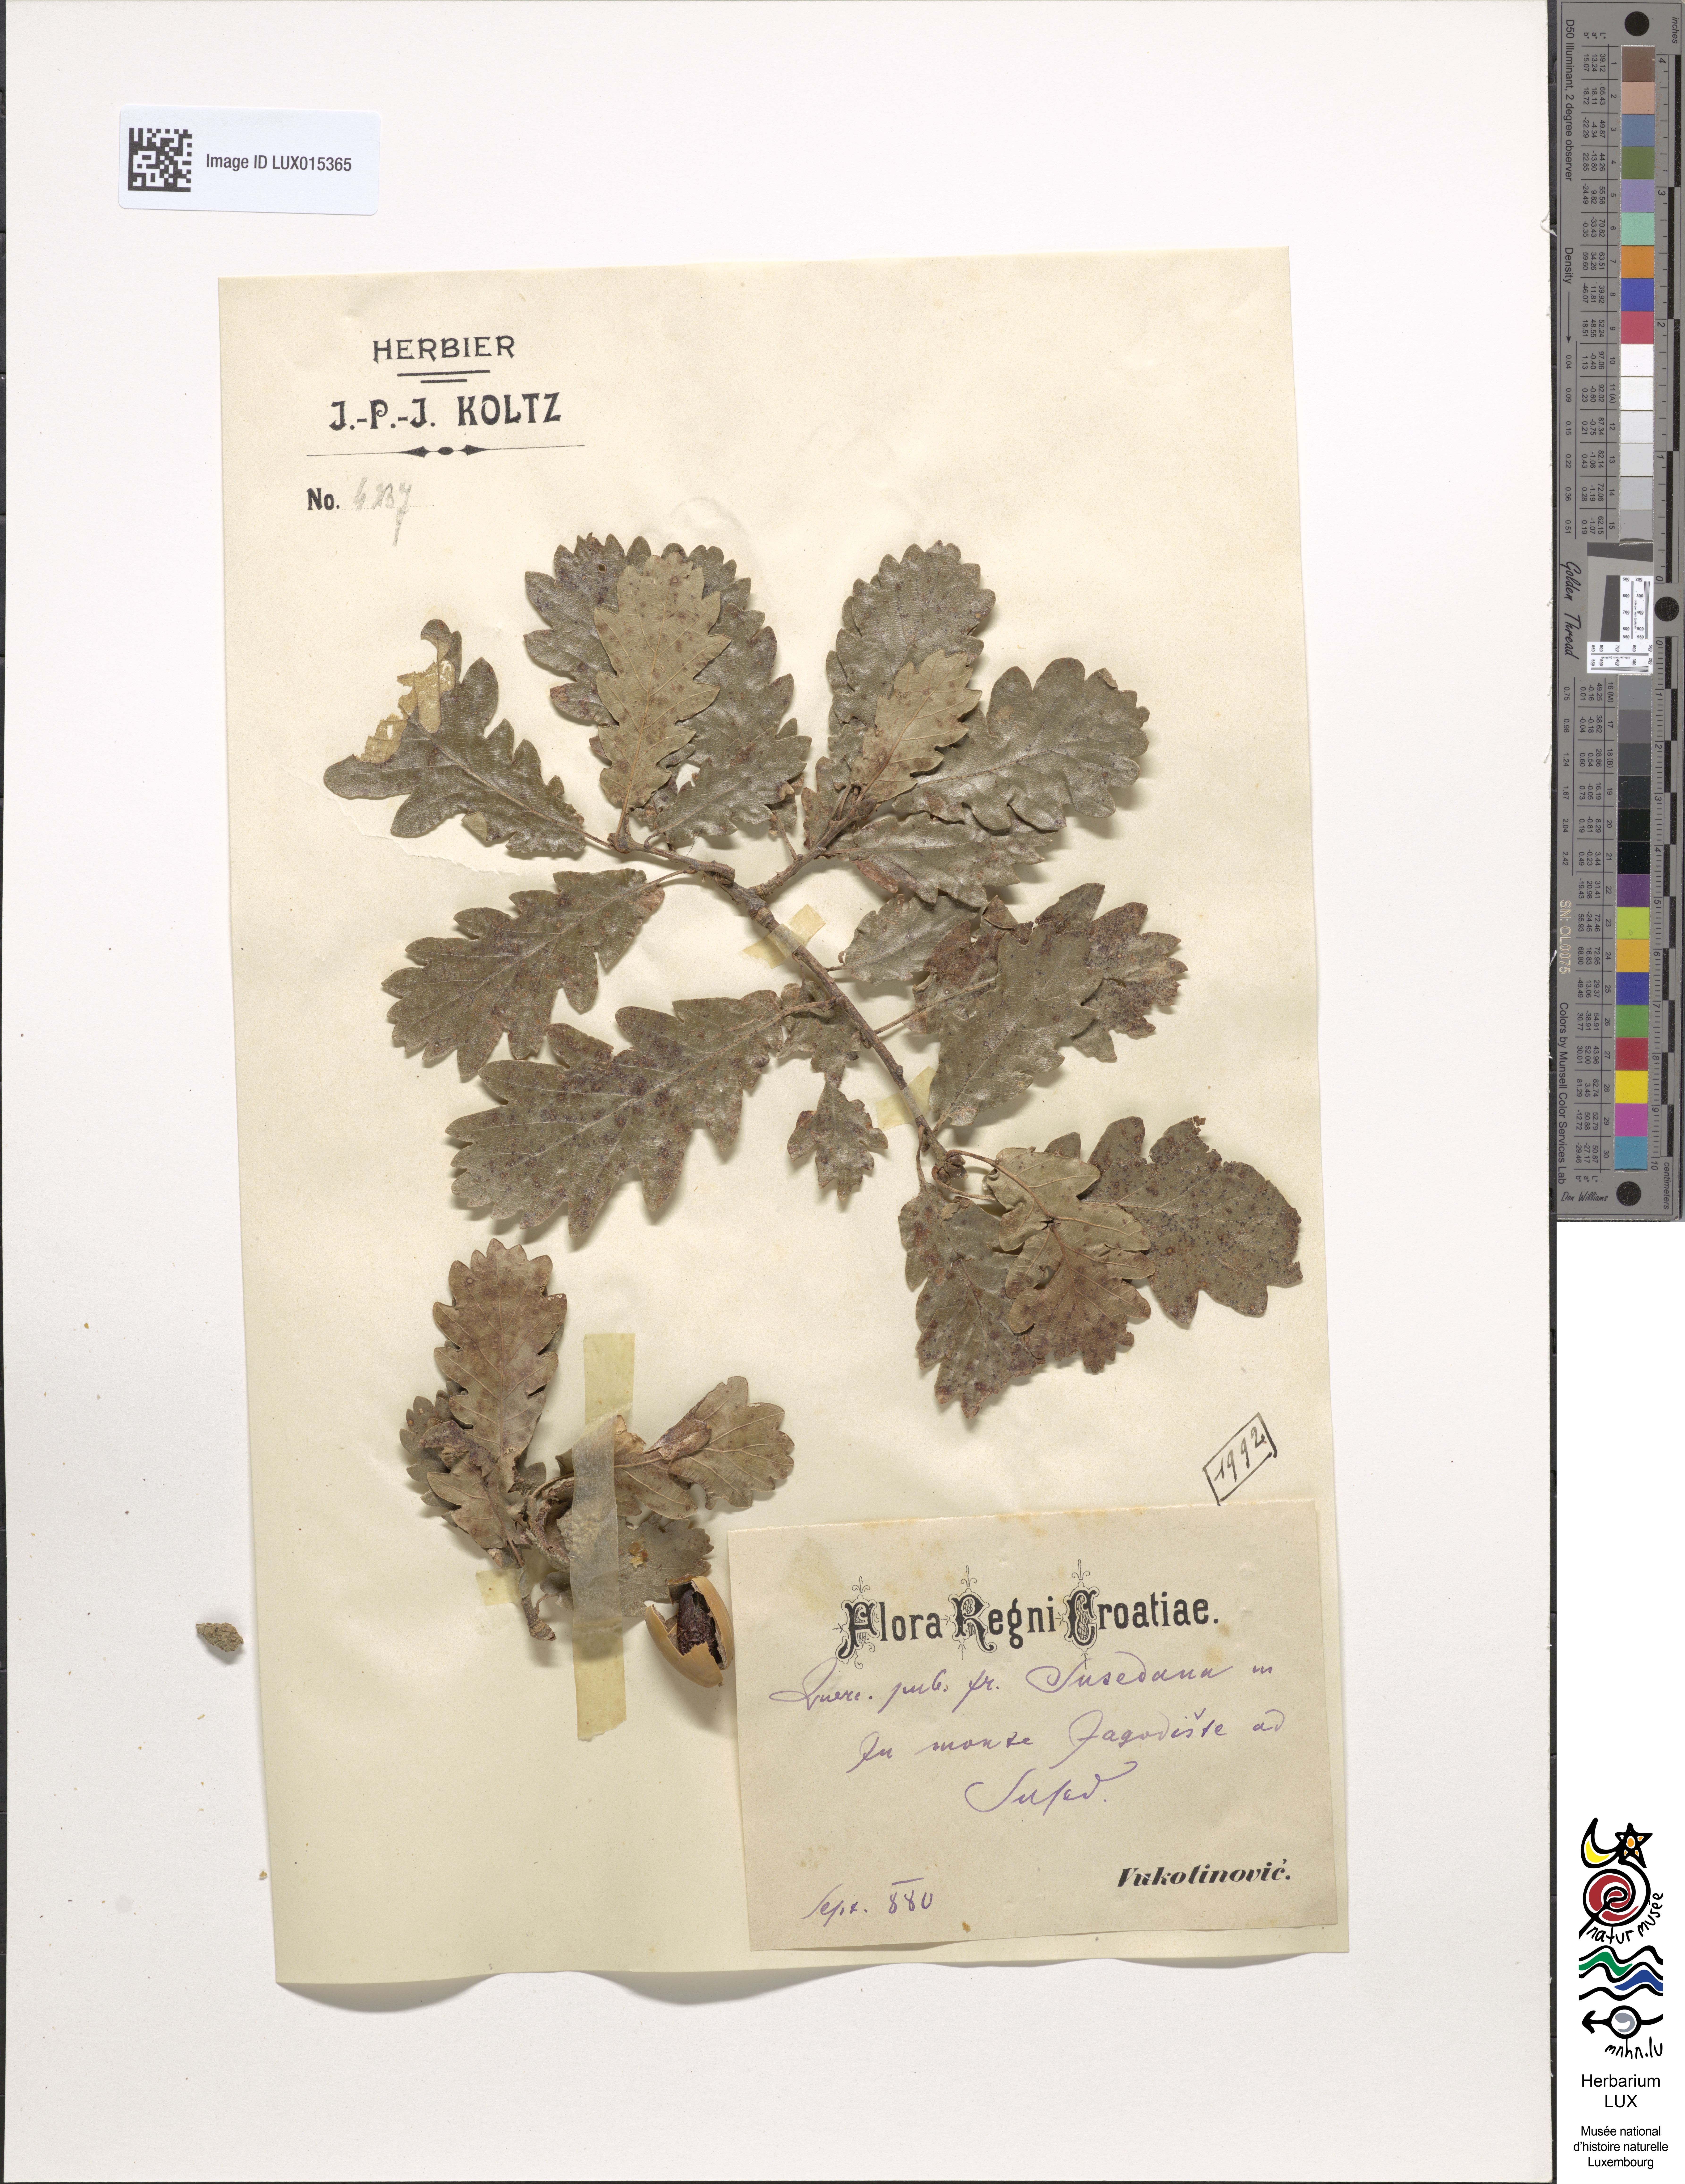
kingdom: Plantae
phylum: Tracheophyta
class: Magnoliopsida
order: Fagales
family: Fagaceae
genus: Quercus
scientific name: Quercus pubescens
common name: Downy oak
